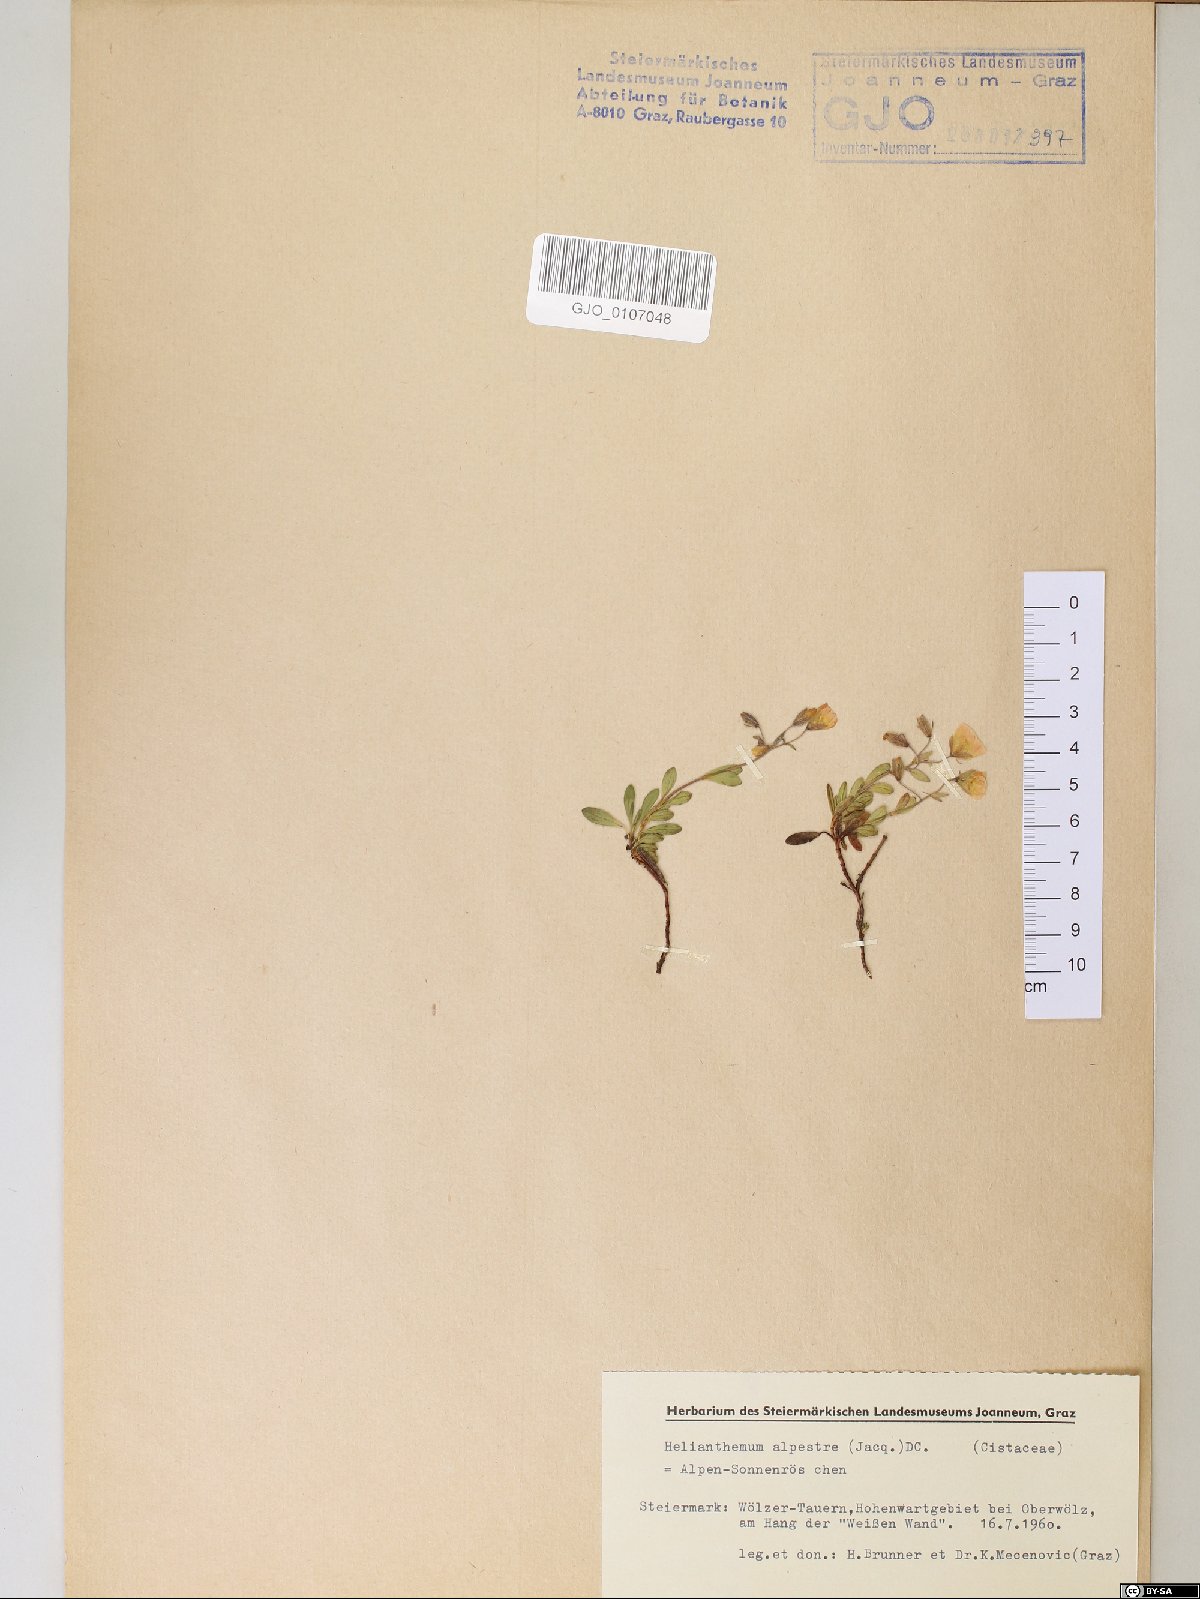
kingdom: Plantae
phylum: Tracheophyta
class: Magnoliopsida
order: Malvales
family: Cistaceae
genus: Helianthemum
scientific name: Helianthemum alpestre
